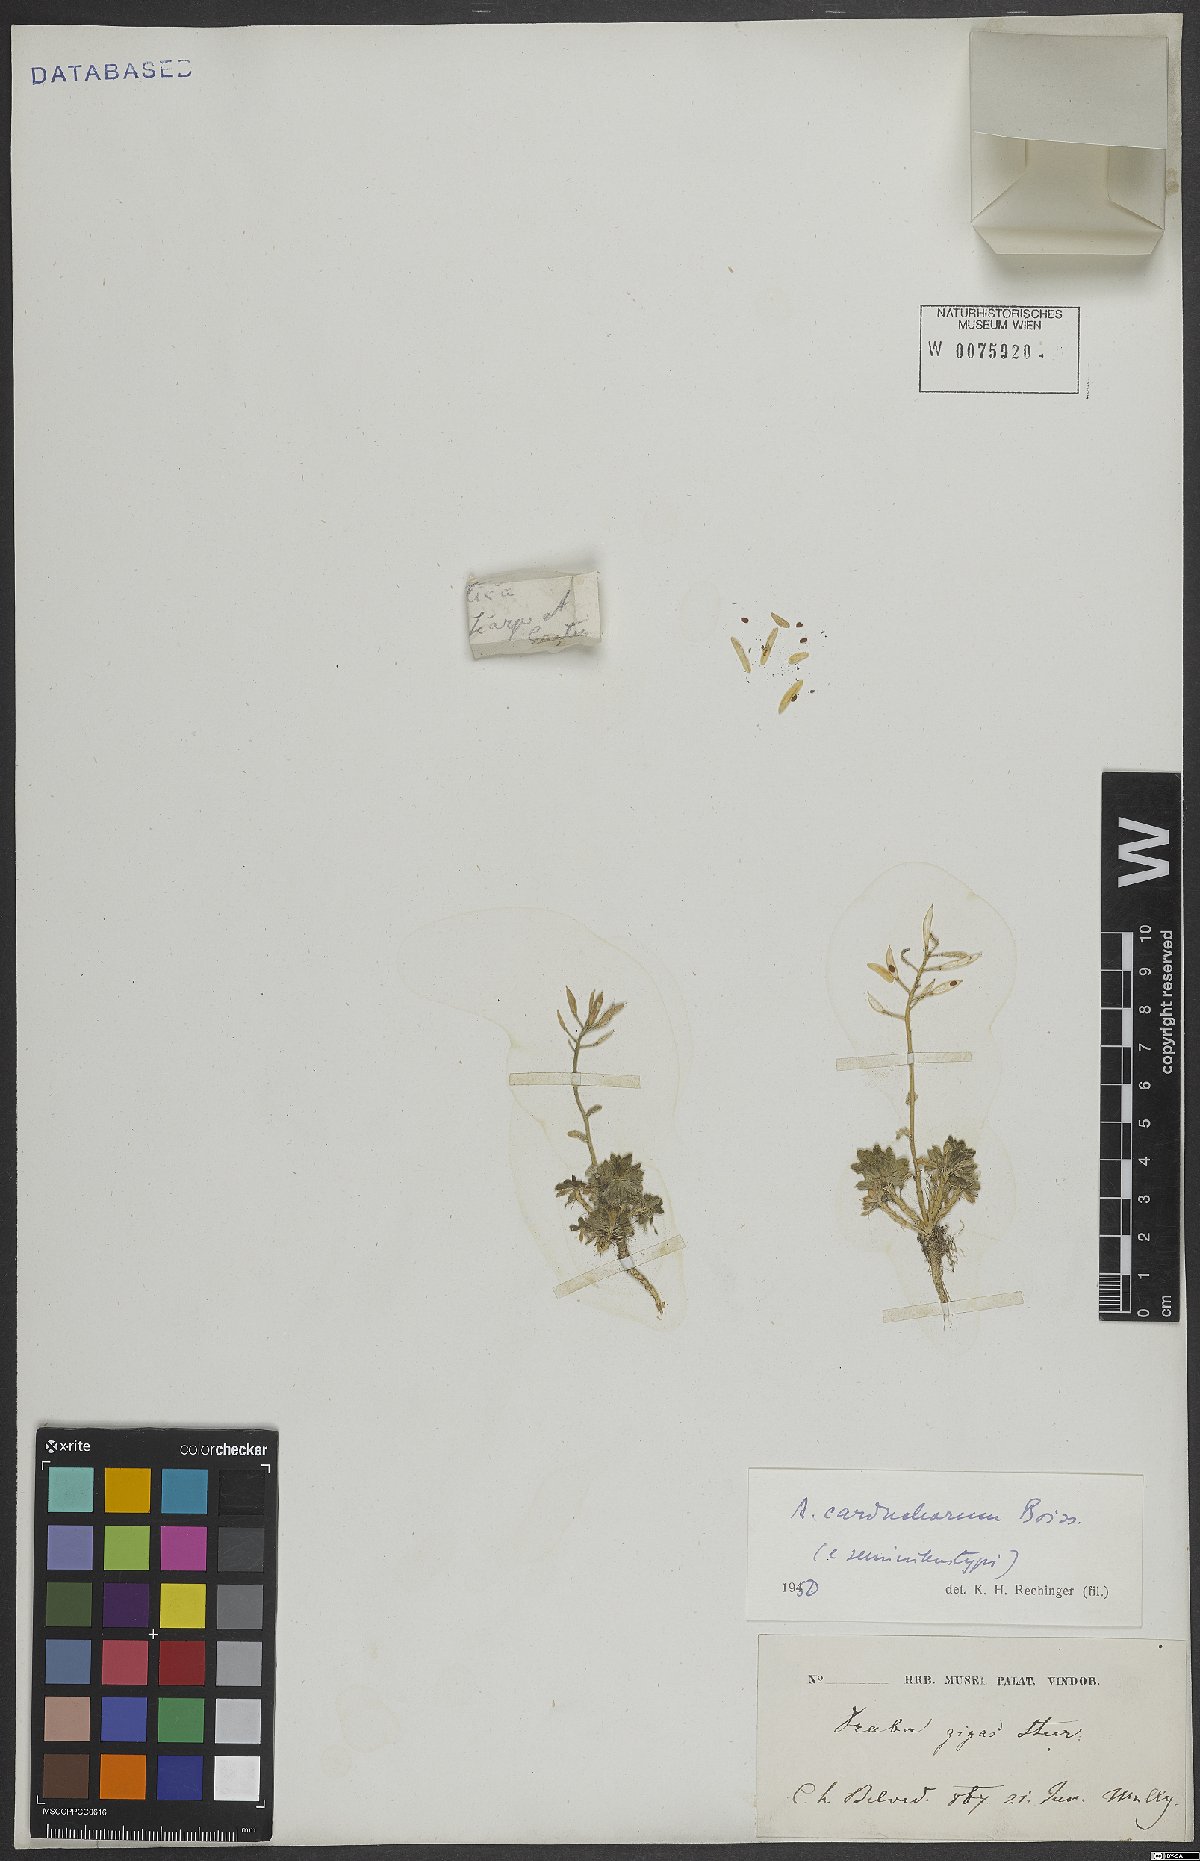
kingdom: Plantae
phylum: Tracheophyta
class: Magnoliopsida
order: Brassicales
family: Brassicaceae
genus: Arabis
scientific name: Arabis carduchorum
